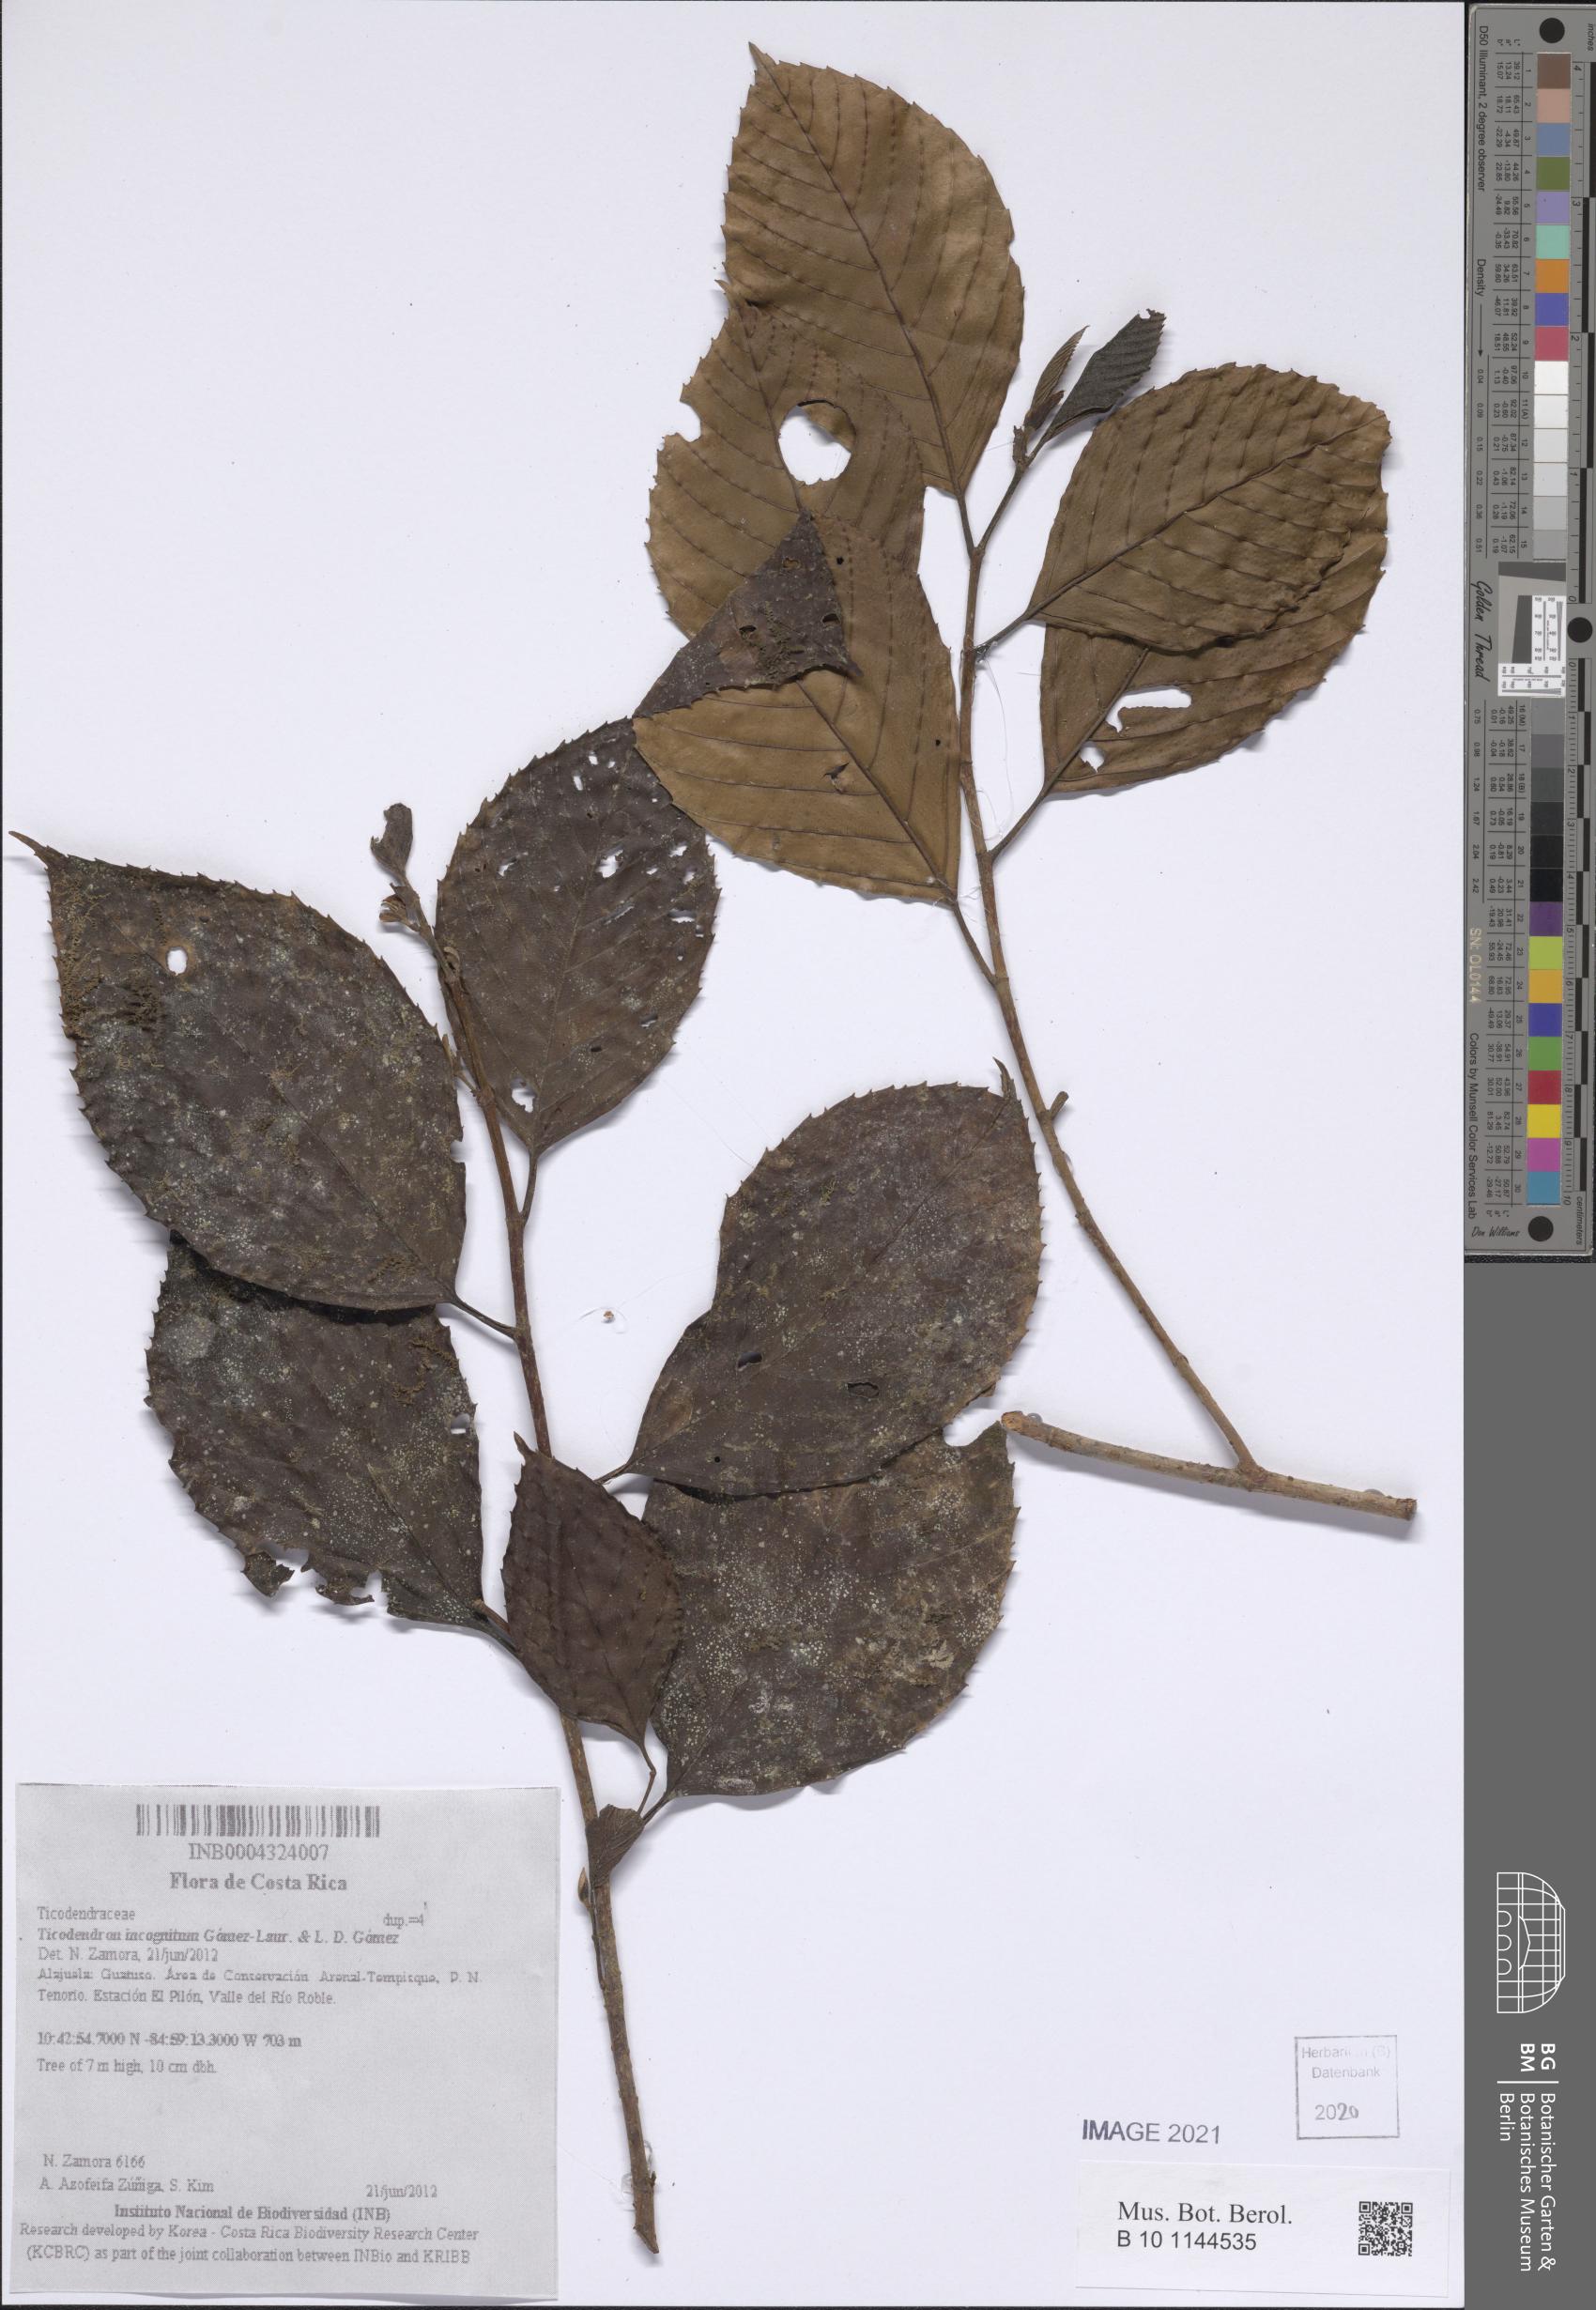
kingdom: Plantae
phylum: Tracheophyta
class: Magnoliopsida
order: Fagales
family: Ticodendraceae
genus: Ticodendron
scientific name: Ticodendron incognitum
